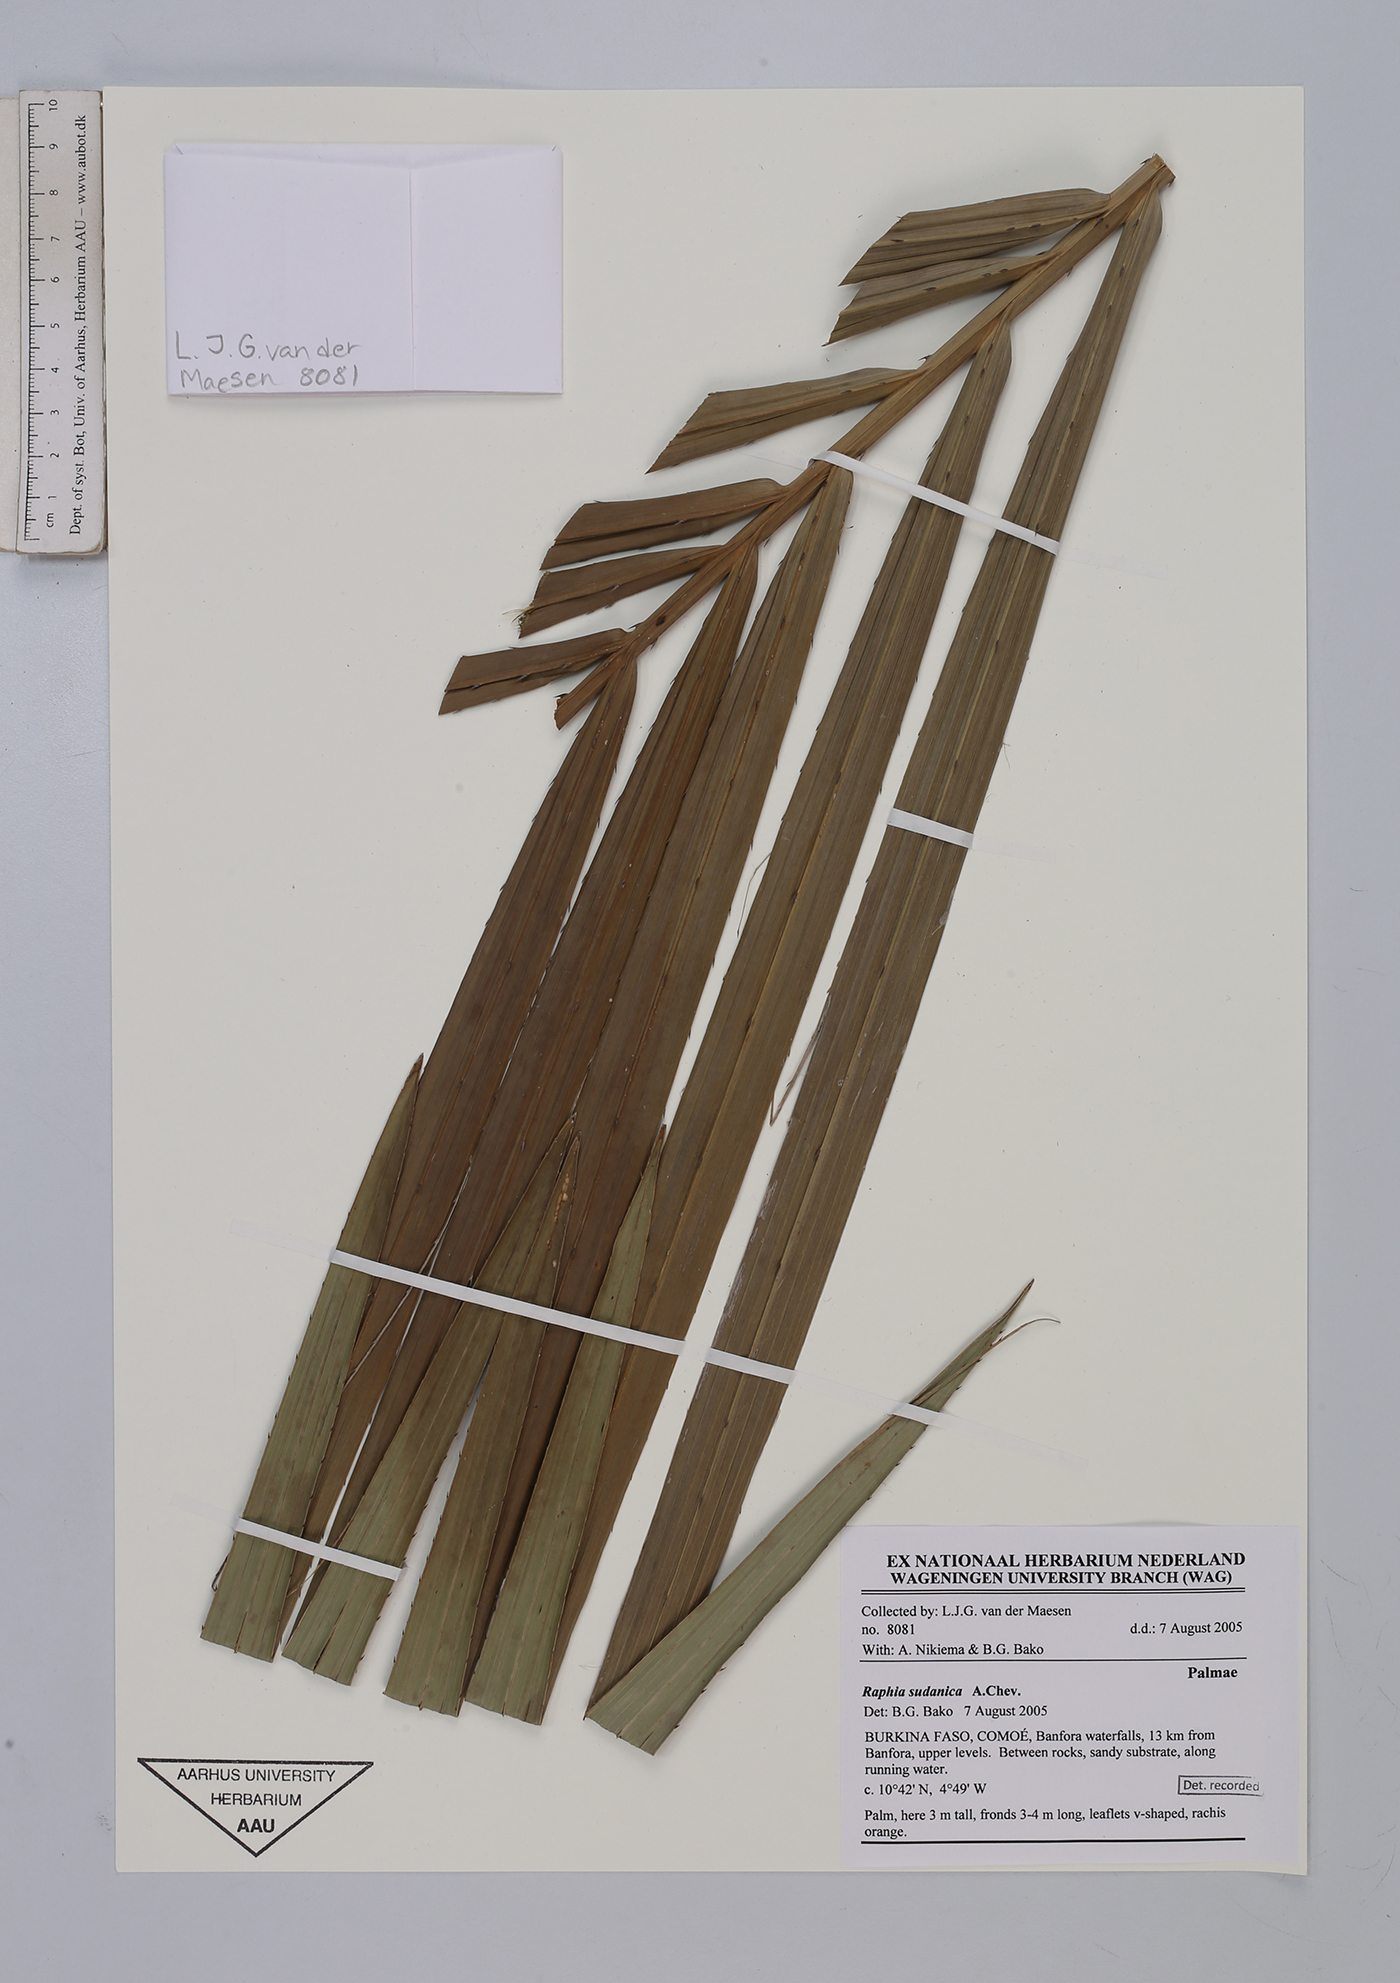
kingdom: Plantae
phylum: Tracheophyta
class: Liliopsida
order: Arecales
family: Arecaceae
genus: Raphia
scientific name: Raphia sudanica
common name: Northern raphia
